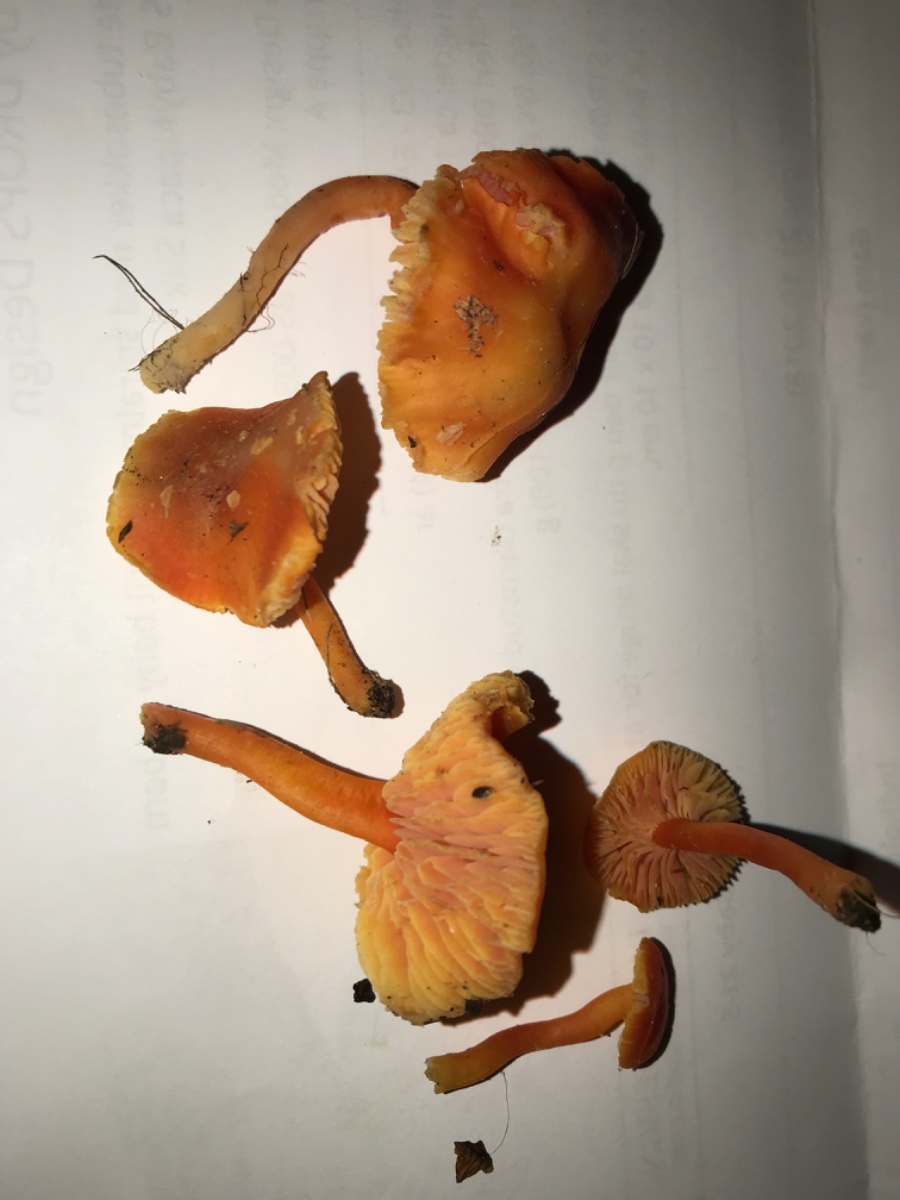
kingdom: Fungi
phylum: Basidiomycota
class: Agaricomycetes
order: Agaricales
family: Hygrophoraceae
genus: Hygrocybe
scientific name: Hygrocybe miniata
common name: mønje-vokshat
